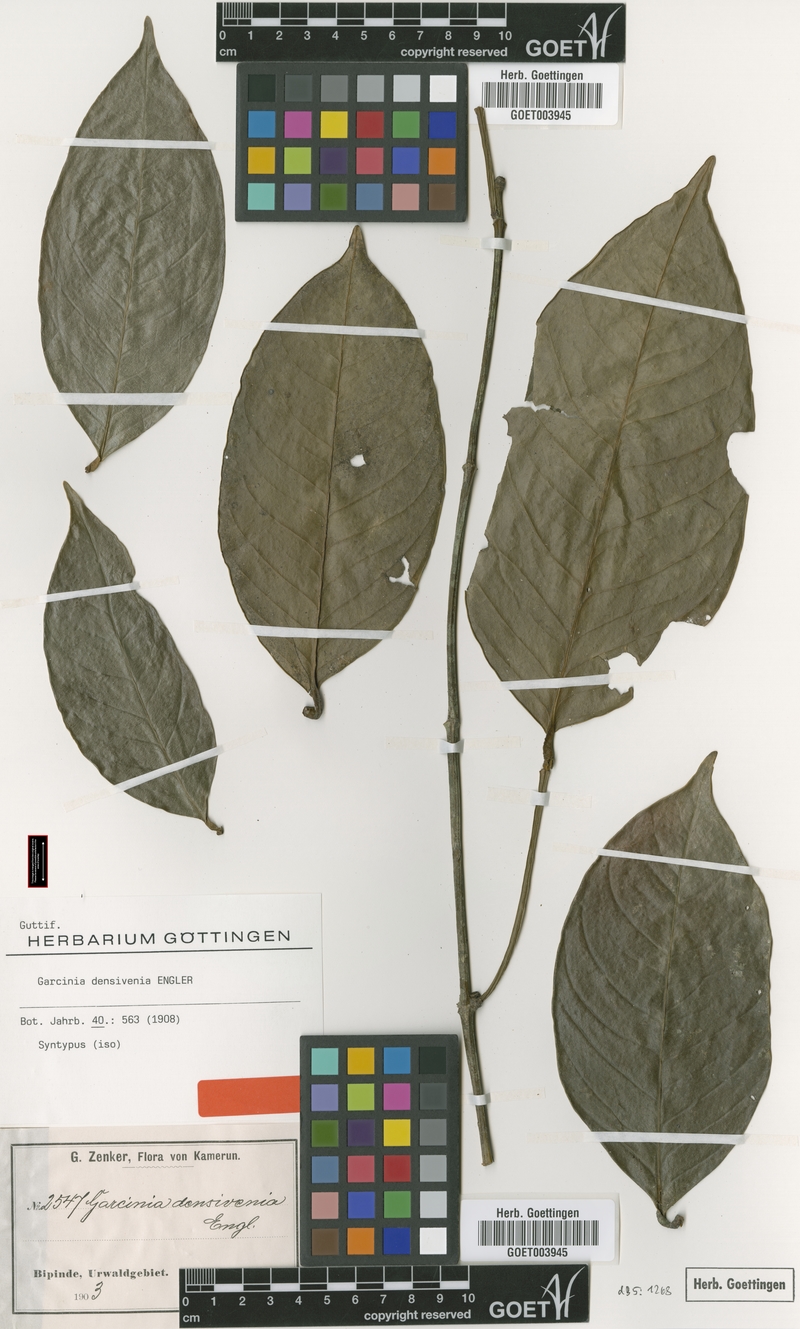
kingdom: Plantae
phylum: Tracheophyta
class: Magnoliopsida
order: Malpighiales
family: Clusiaceae
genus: Garcinia
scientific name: Garcinia densivenia
